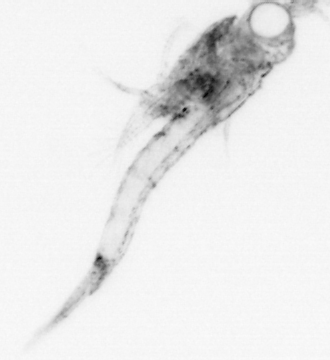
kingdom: Animalia
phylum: Arthropoda
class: Malacostraca
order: Decapoda
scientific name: Decapoda
